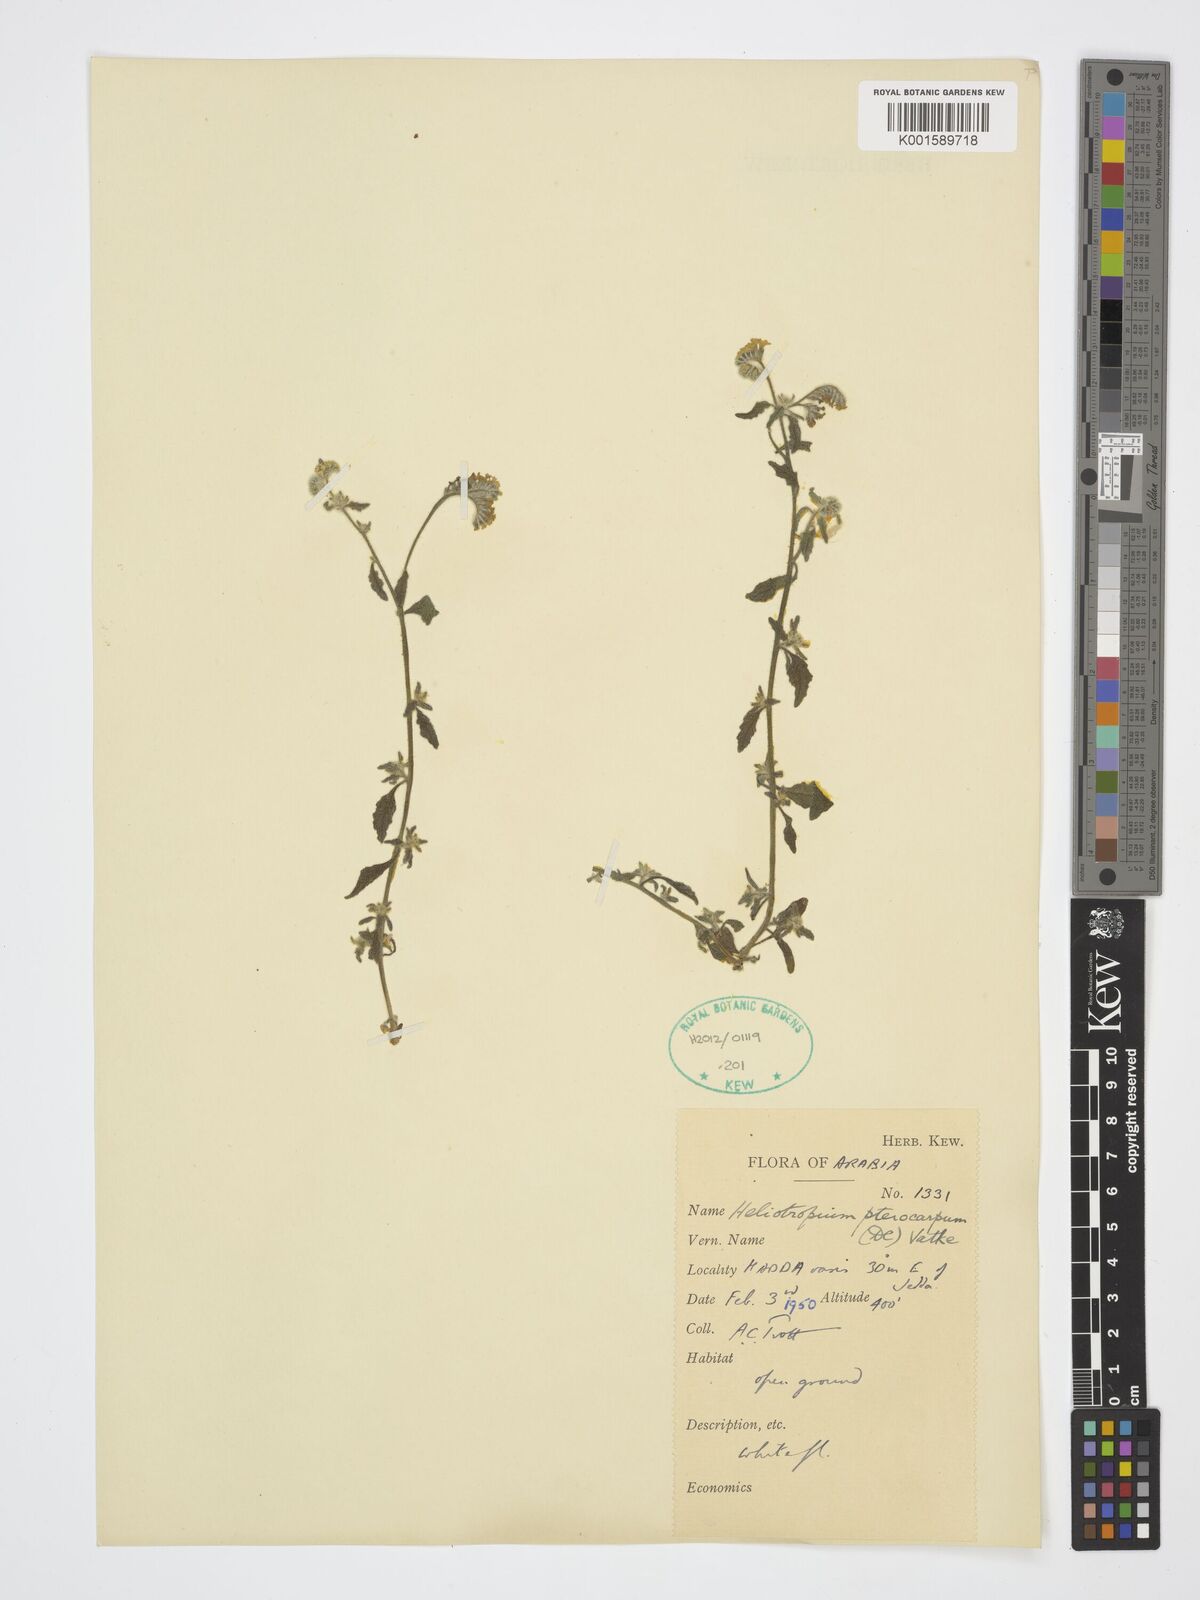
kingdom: Plantae
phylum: Tracheophyta
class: Magnoliopsida
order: Boraginales
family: Heliotropiaceae
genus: Heliotropium
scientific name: Heliotropium pterocarpum
